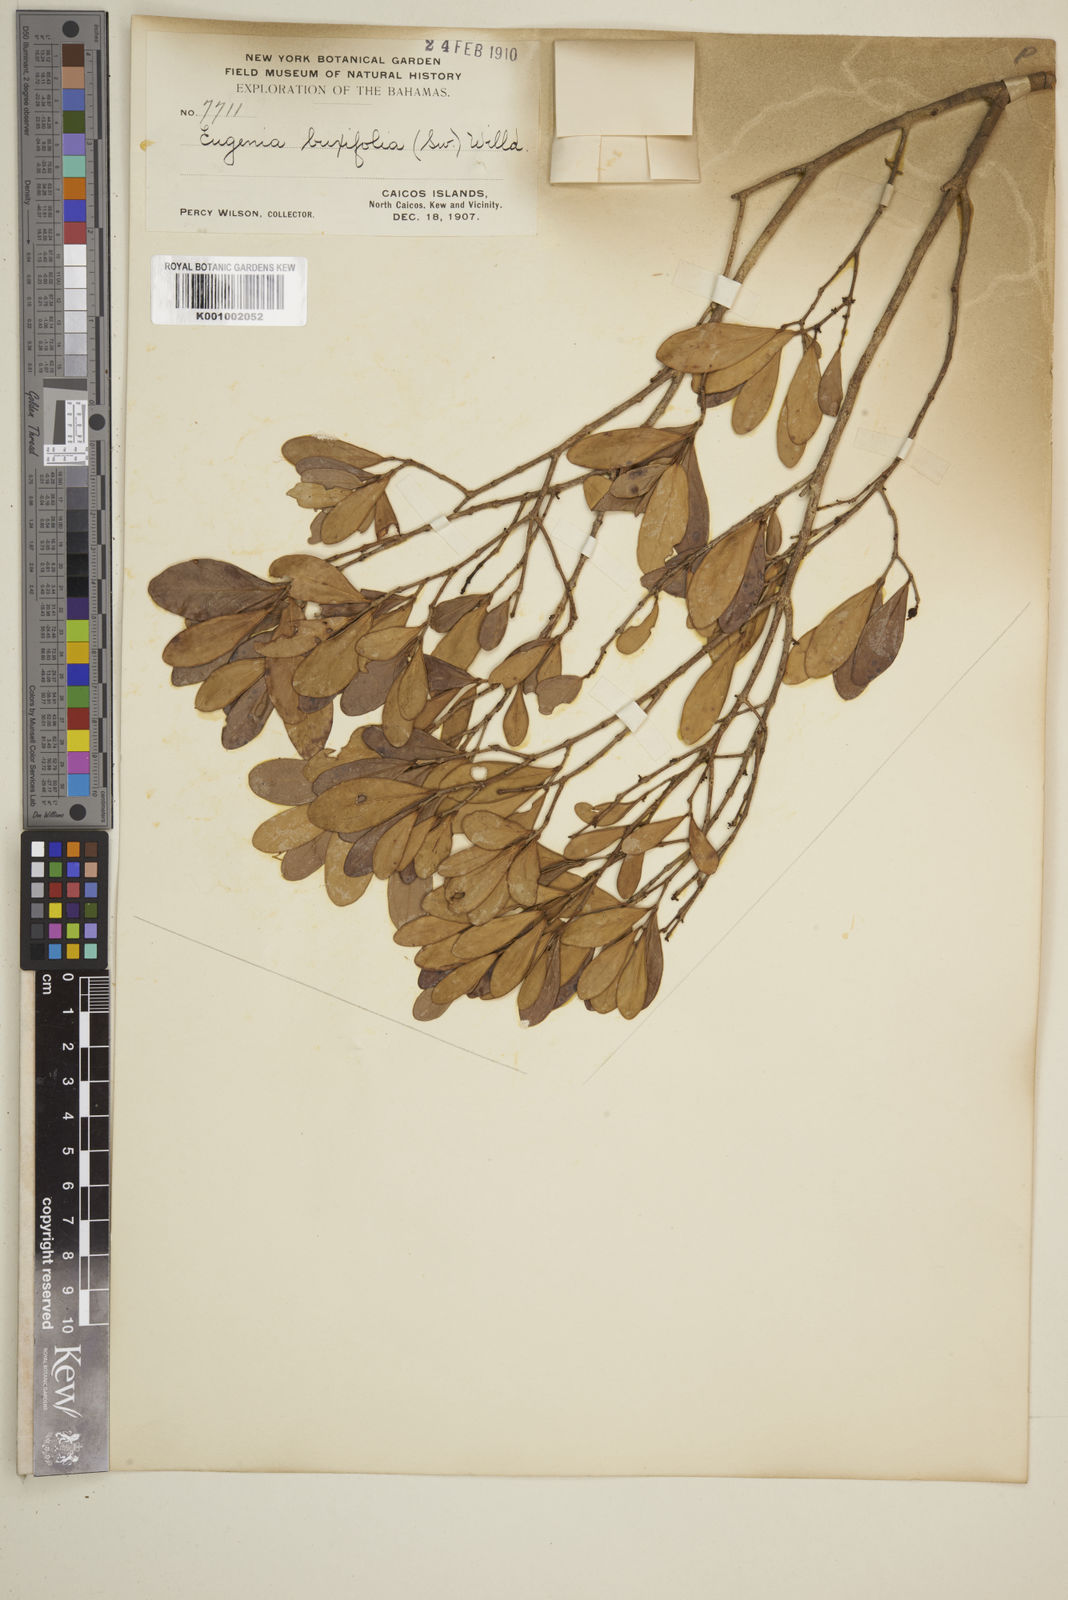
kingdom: Plantae
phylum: Tracheophyta
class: Magnoliopsida
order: Myrtales
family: Myrtaceae
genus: Eugenia
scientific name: Eugenia buxifolia
